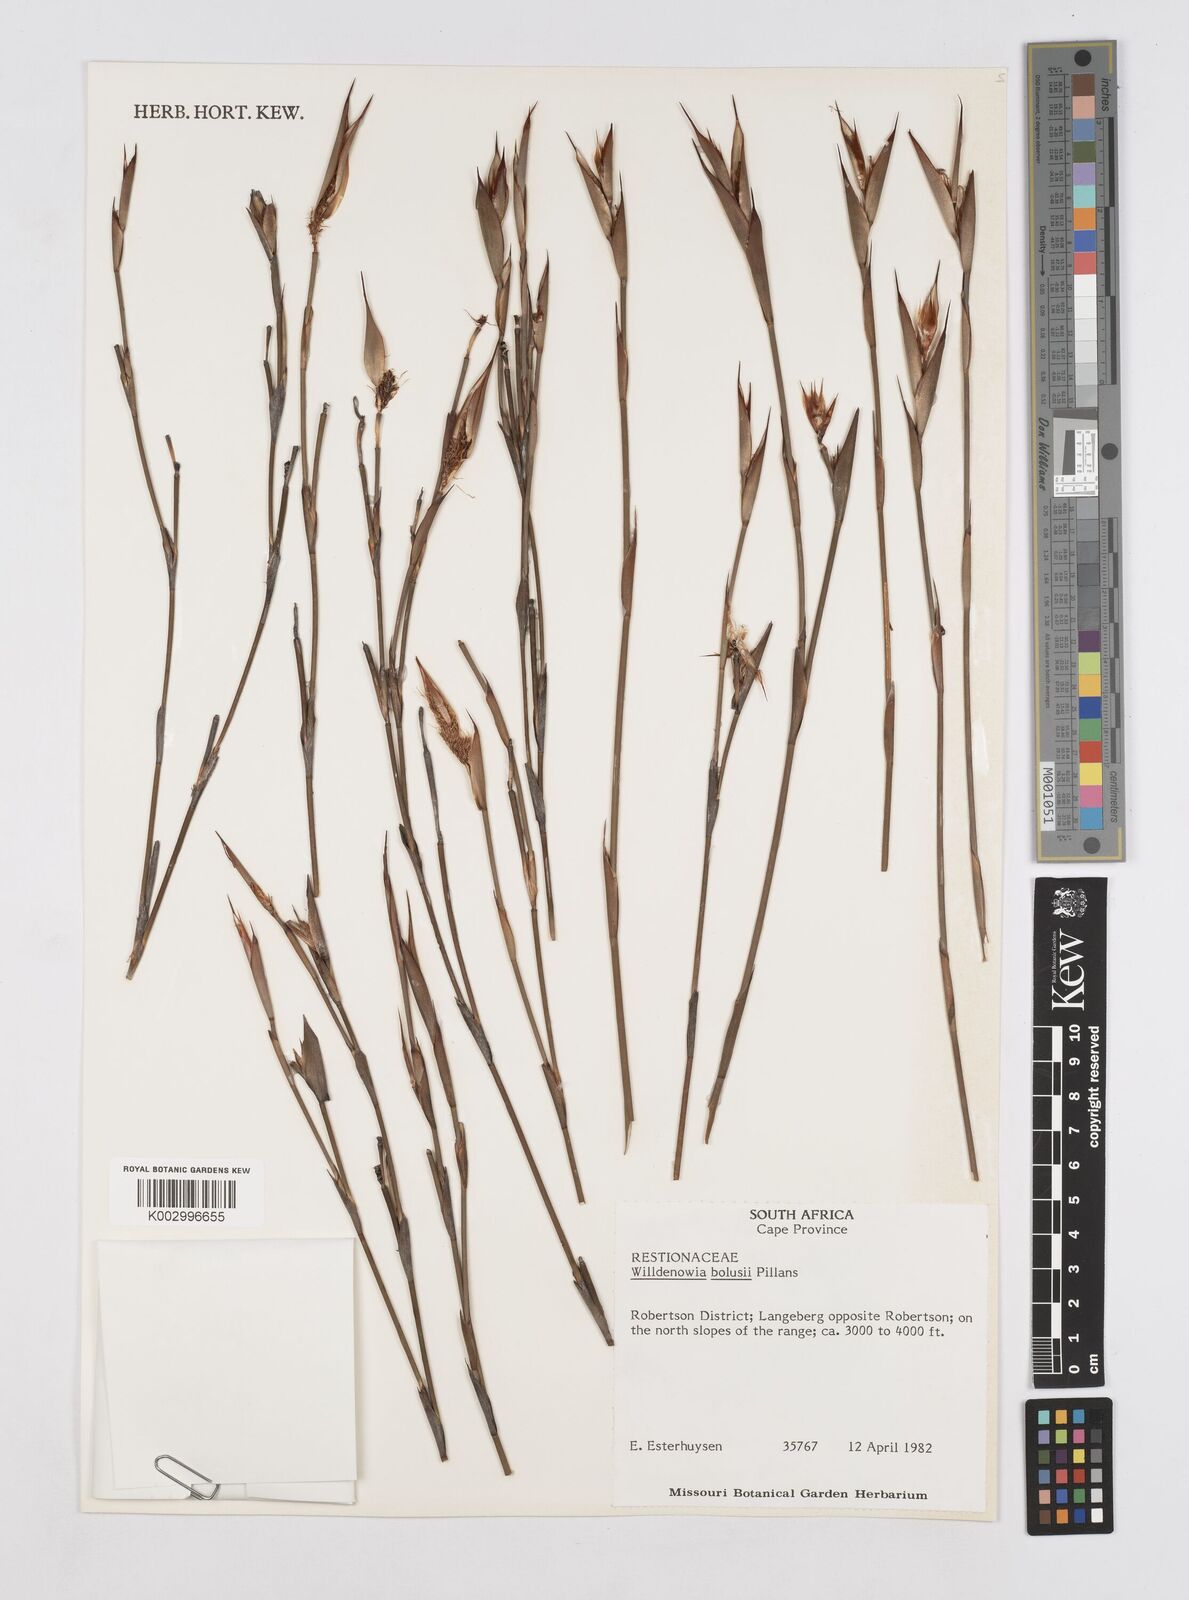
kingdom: Plantae
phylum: Tracheophyta
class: Liliopsida
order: Poales
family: Restionaceae
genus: Willdenowia
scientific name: Willdenowia bolusii
